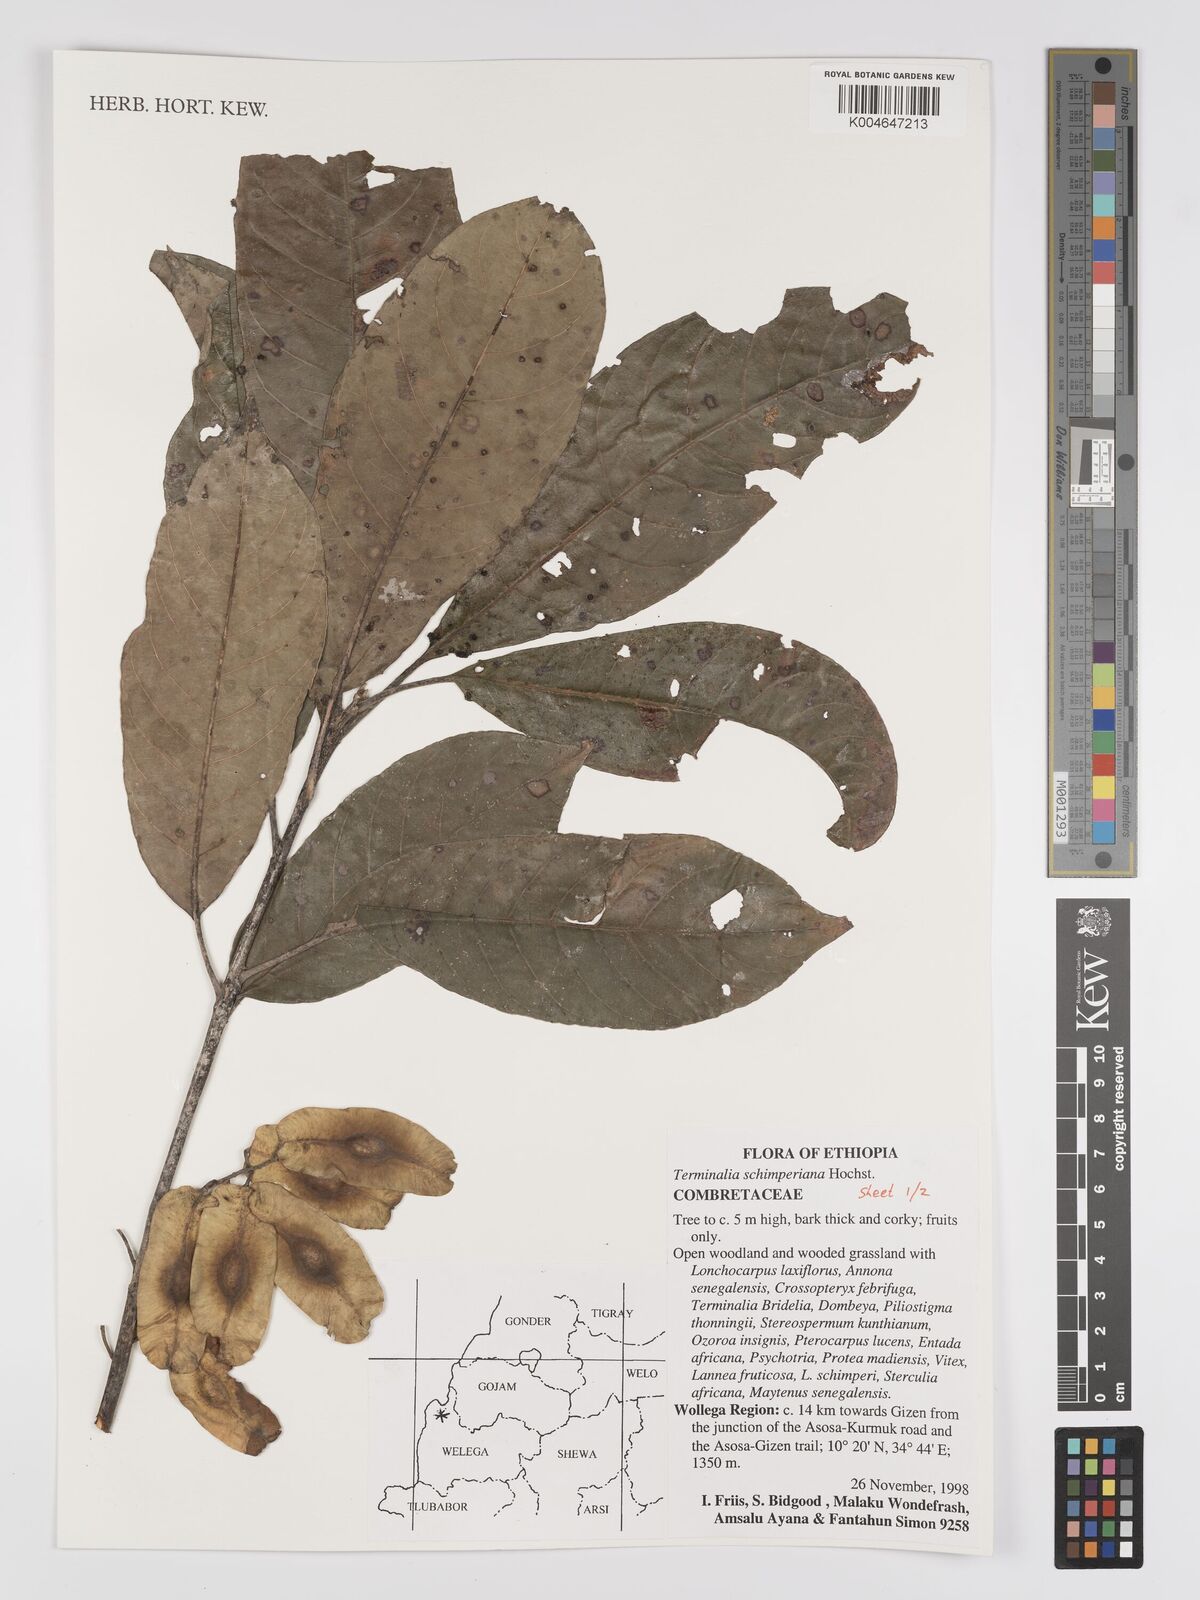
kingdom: Plantae
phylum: Tracheophyta
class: Magnoliopsida
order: Myrtales
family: Combretaceae
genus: Terminalia
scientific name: Terminalia schimperiana
